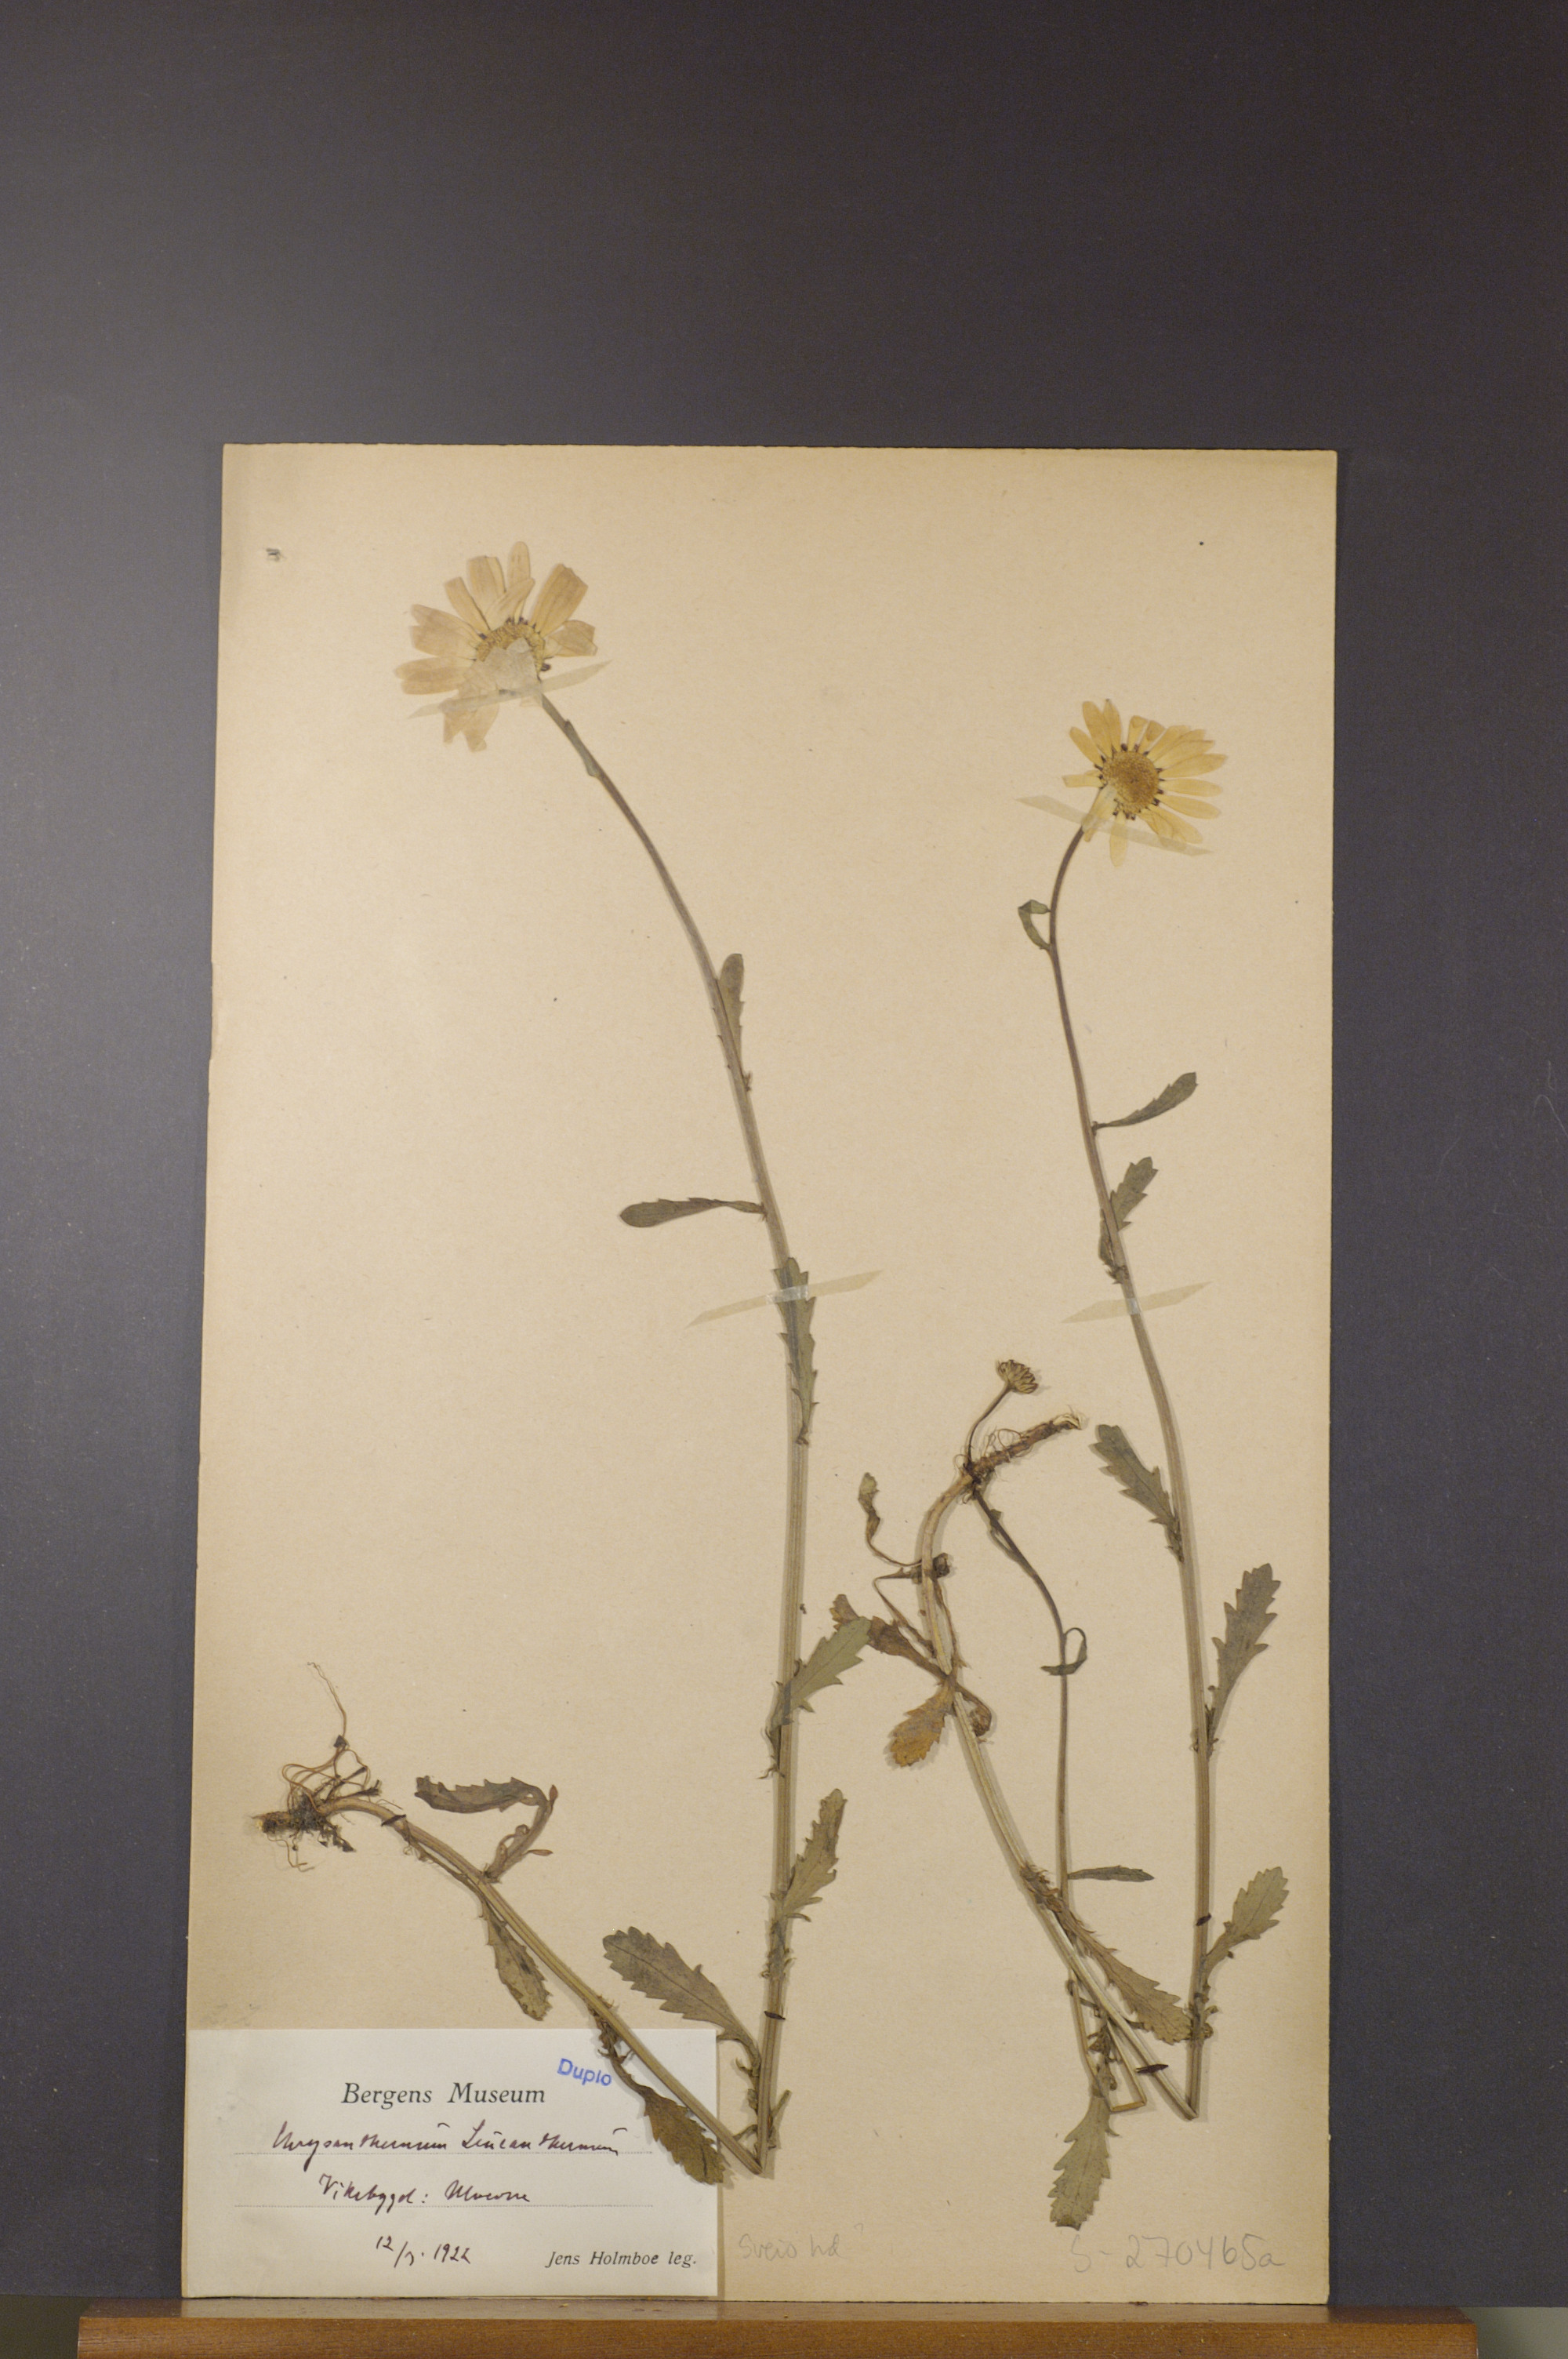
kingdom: Plantae
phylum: Tracheophyta
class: Magnoliopsida
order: Asterales
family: Asteraceae
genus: Leucanthemum
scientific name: Leucanthemum vulgare
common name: Oxeye daisy
